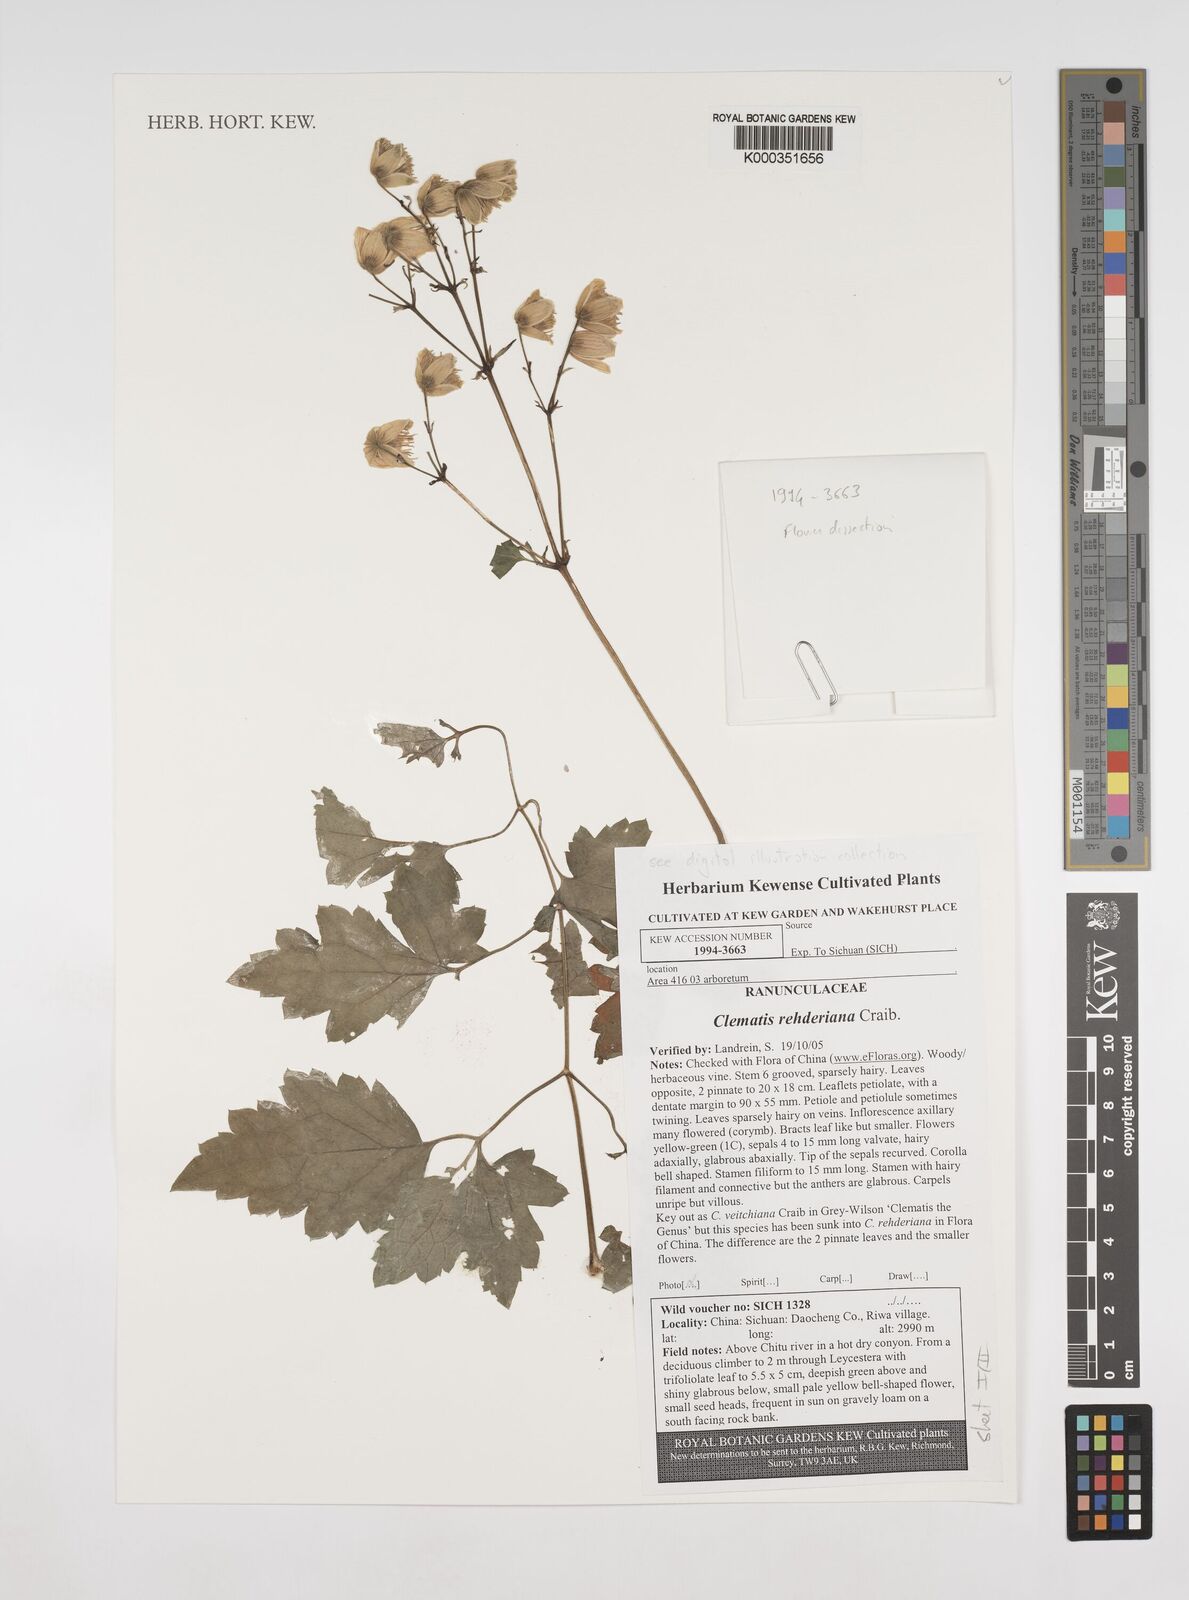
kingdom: Plantae
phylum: Tracheophyta
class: Magnoliopsida
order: Ranunculales
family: Ranunculaceae
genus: Clematis
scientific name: Clematis rehderiana
